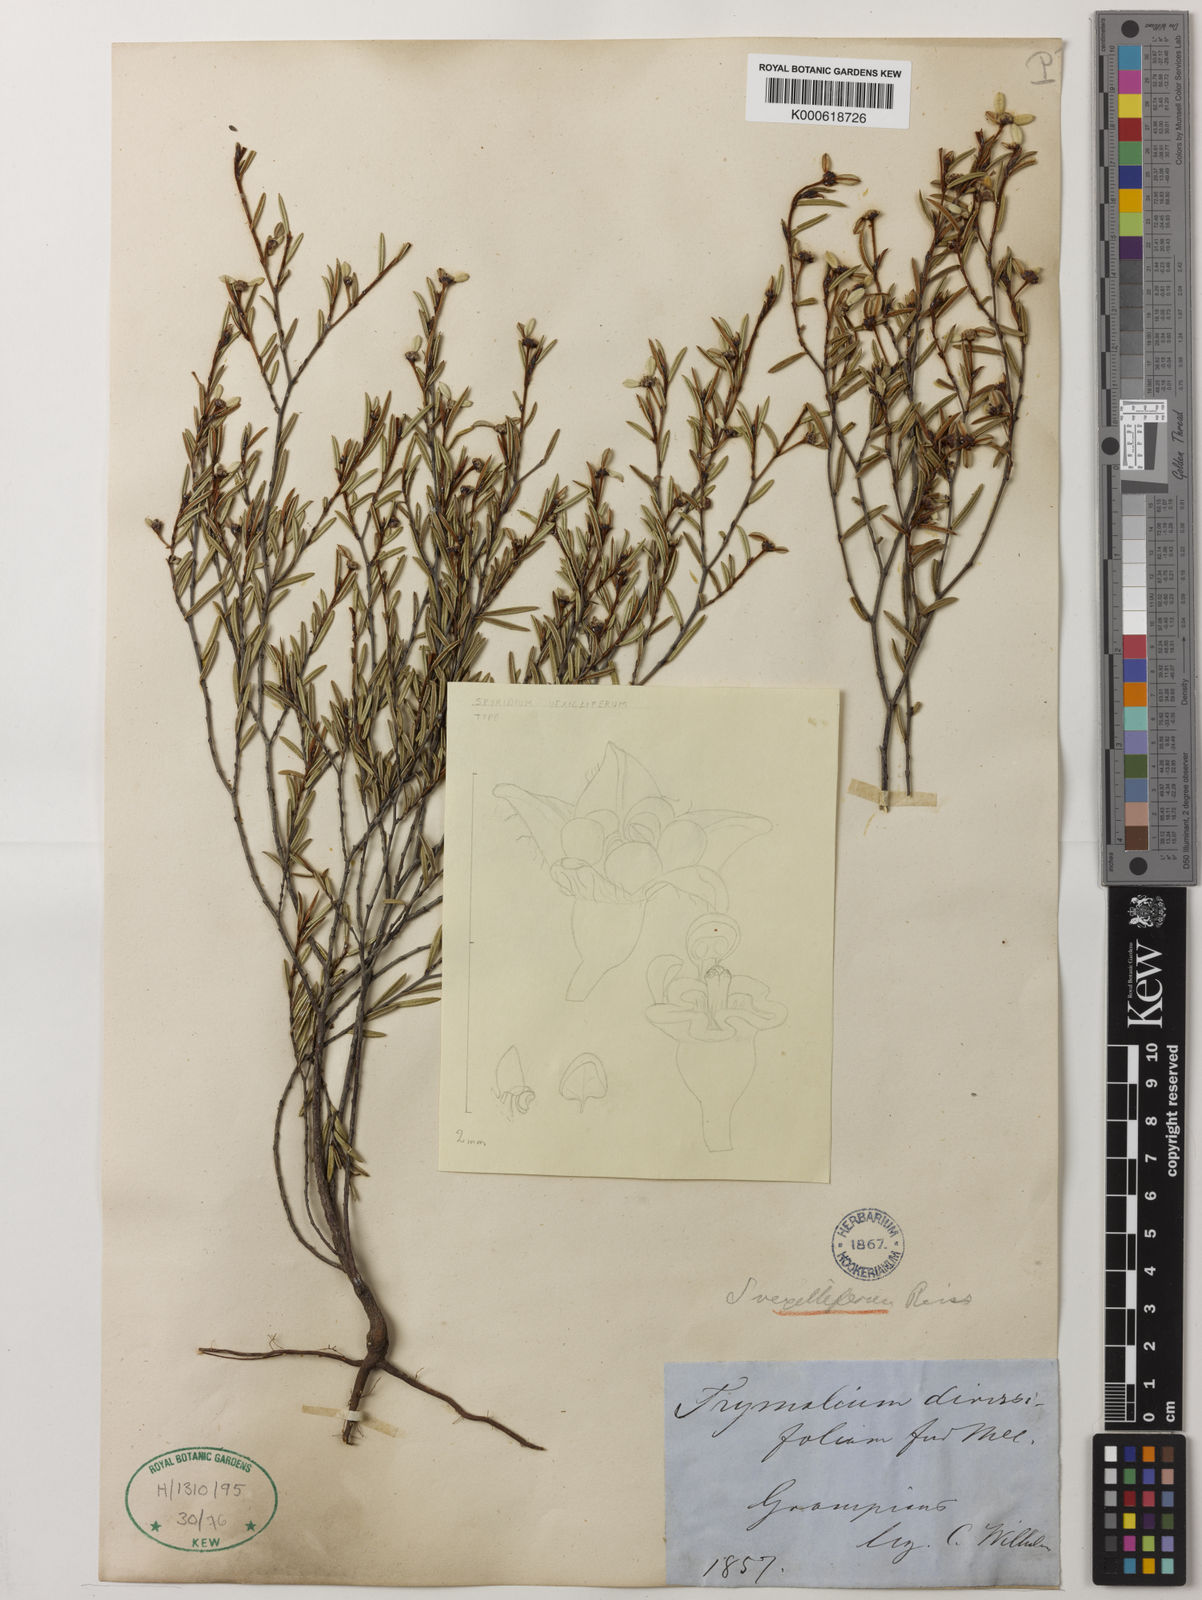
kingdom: Plantae
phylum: Tracheophyta
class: Magnoliopsida
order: Rosales
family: Rhamnaceae
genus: Spyridium
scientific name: Spyridium vexilliferum
